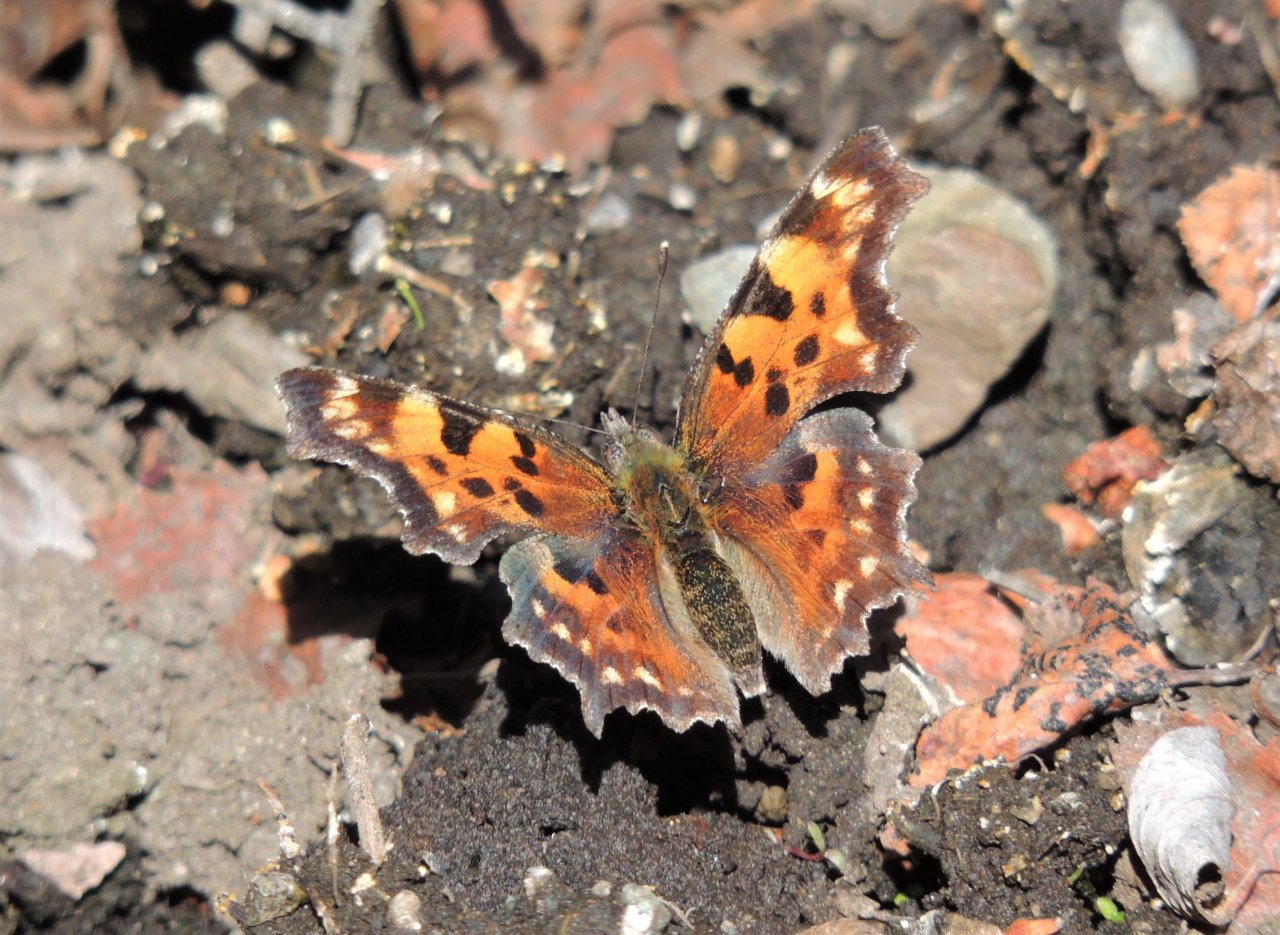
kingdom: Animalia
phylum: Arthropoda
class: Insecta
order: Lepidoptera
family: Nymphalidae
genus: Polygonia
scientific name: Polygonia faunus
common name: Green Comma
